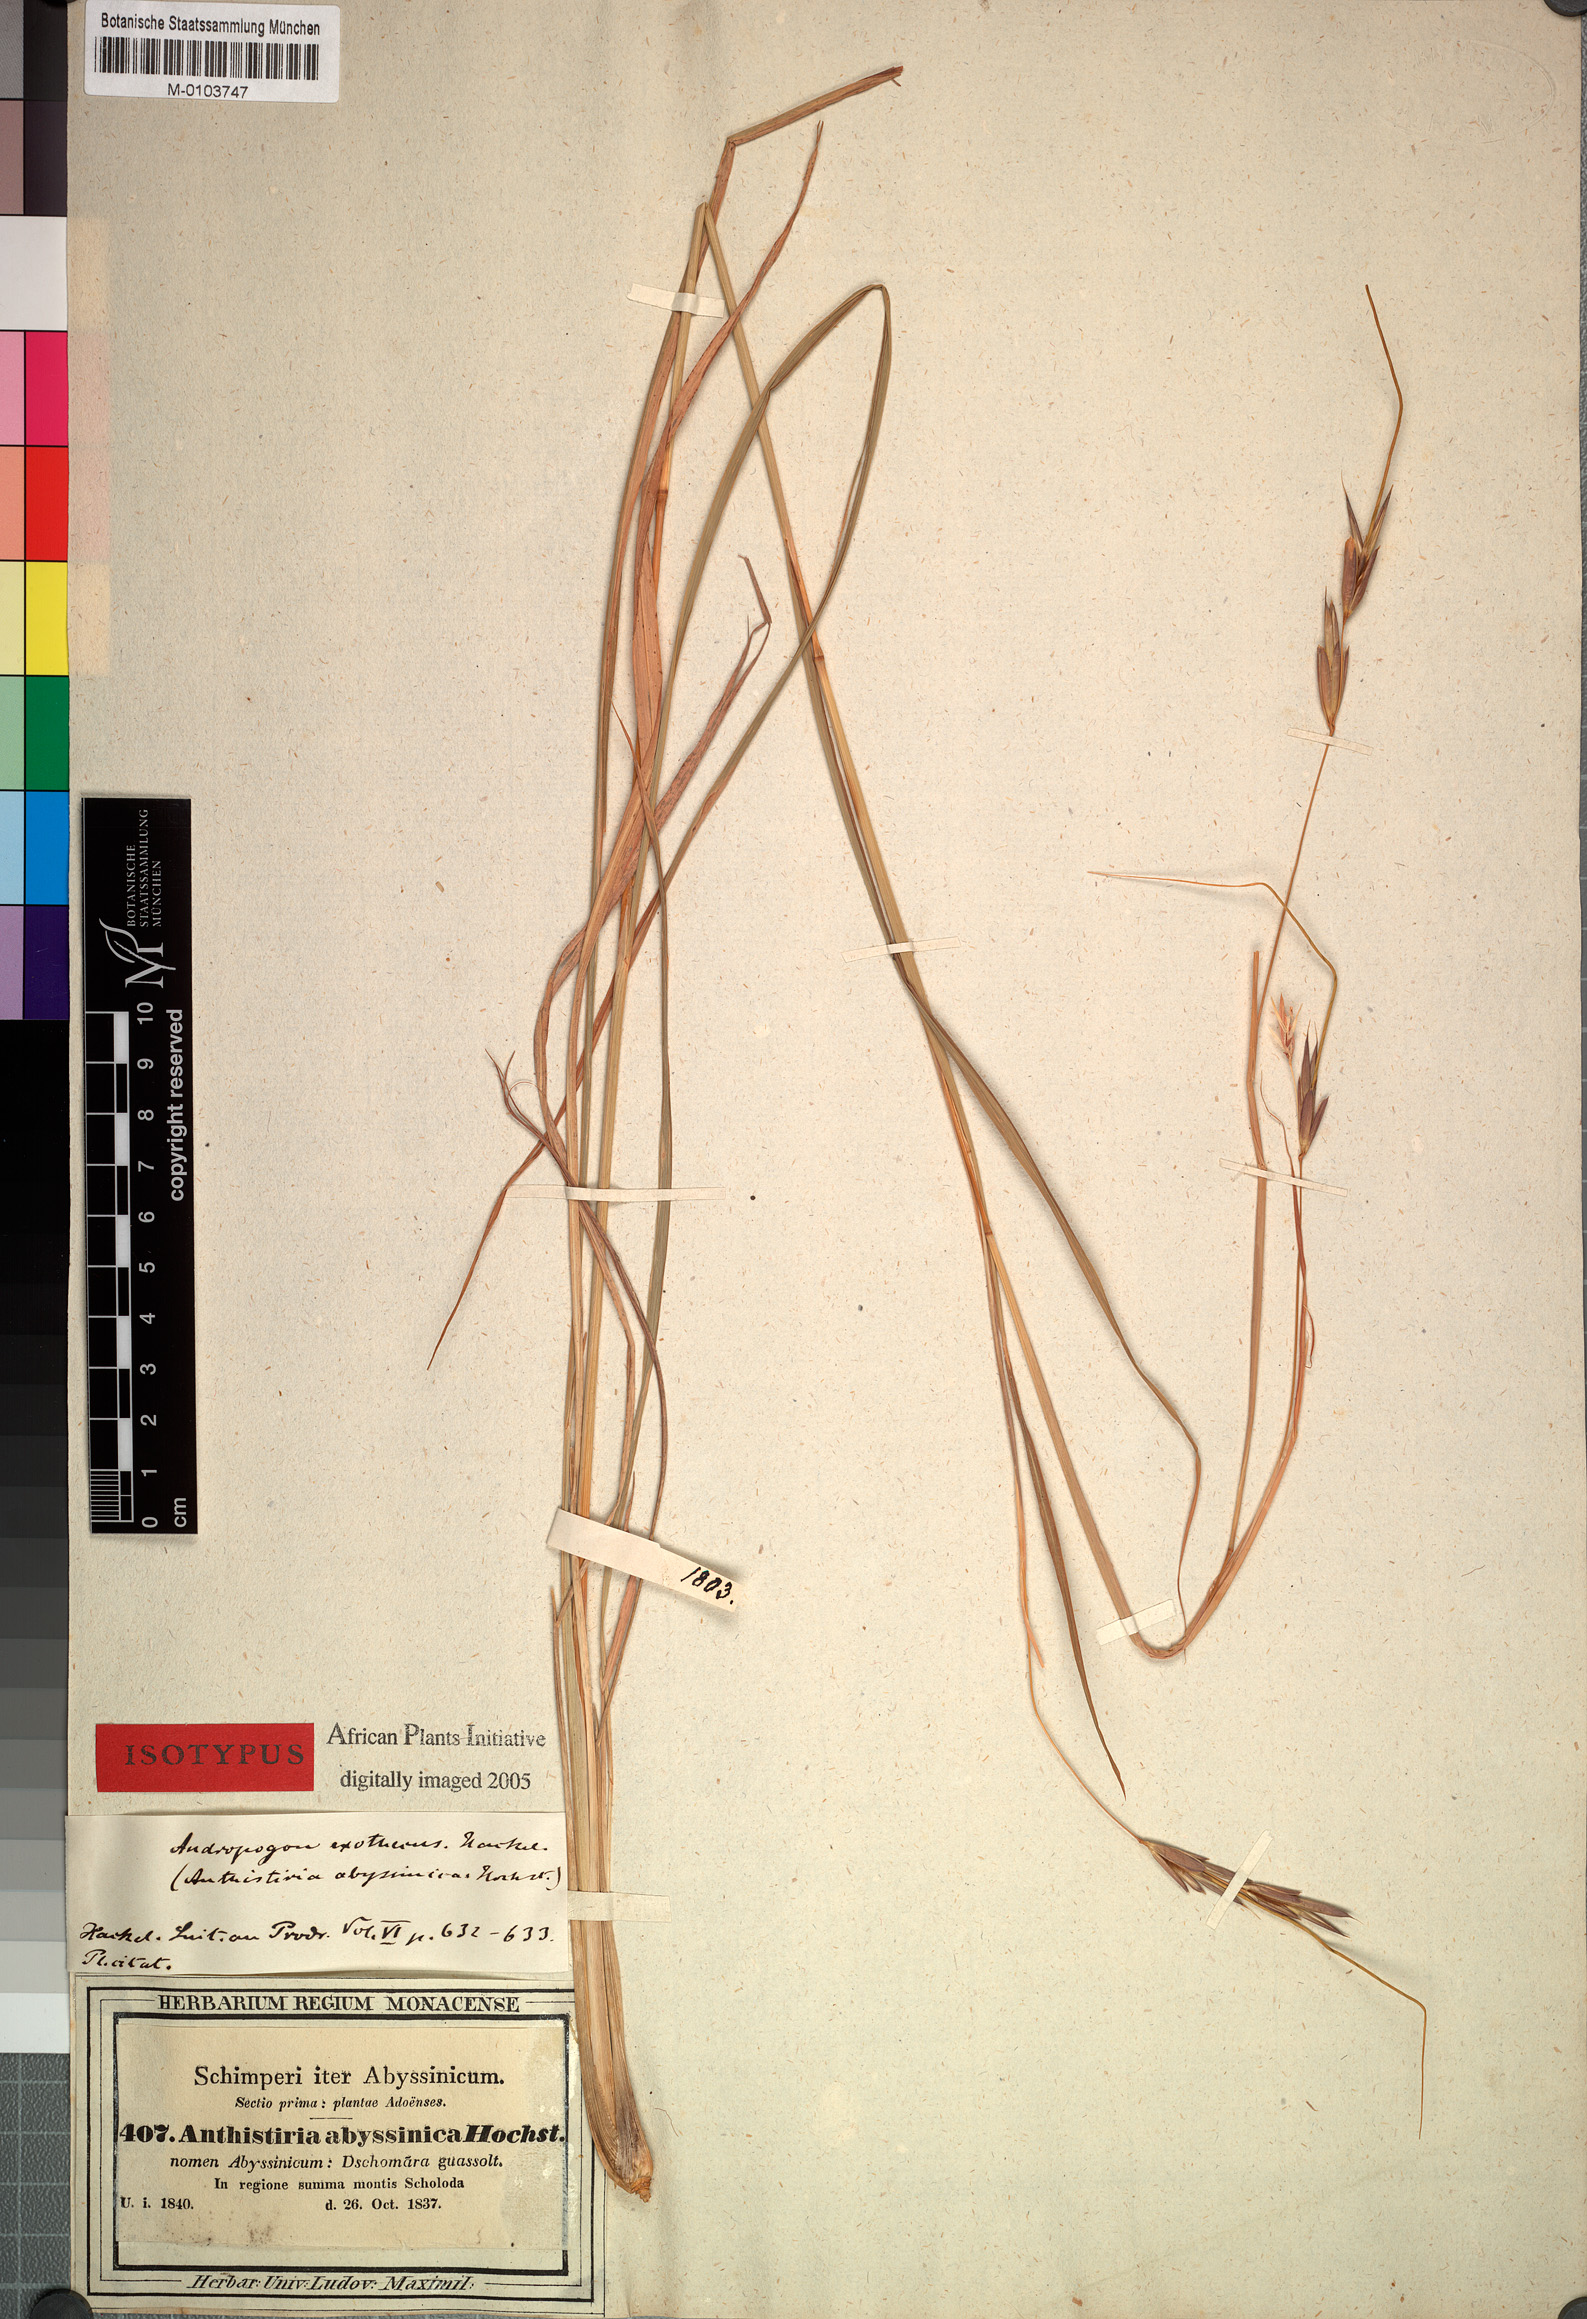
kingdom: Plantae
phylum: Tracheophyta
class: Liliopsida
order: Poales
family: Poaceae
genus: Exotheca
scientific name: Exotheca abyssinica
